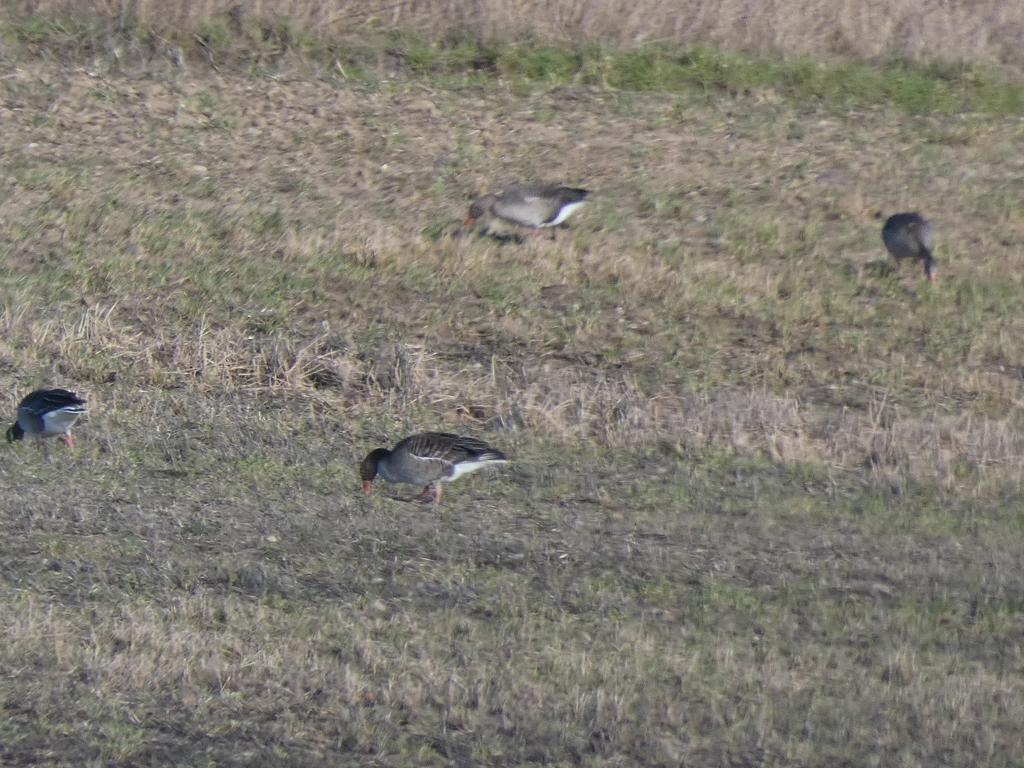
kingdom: Animalia
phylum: Chordata
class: Aves
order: Anseriformes
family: Anatidae
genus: Anser
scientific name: Anser anser
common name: Grågås
